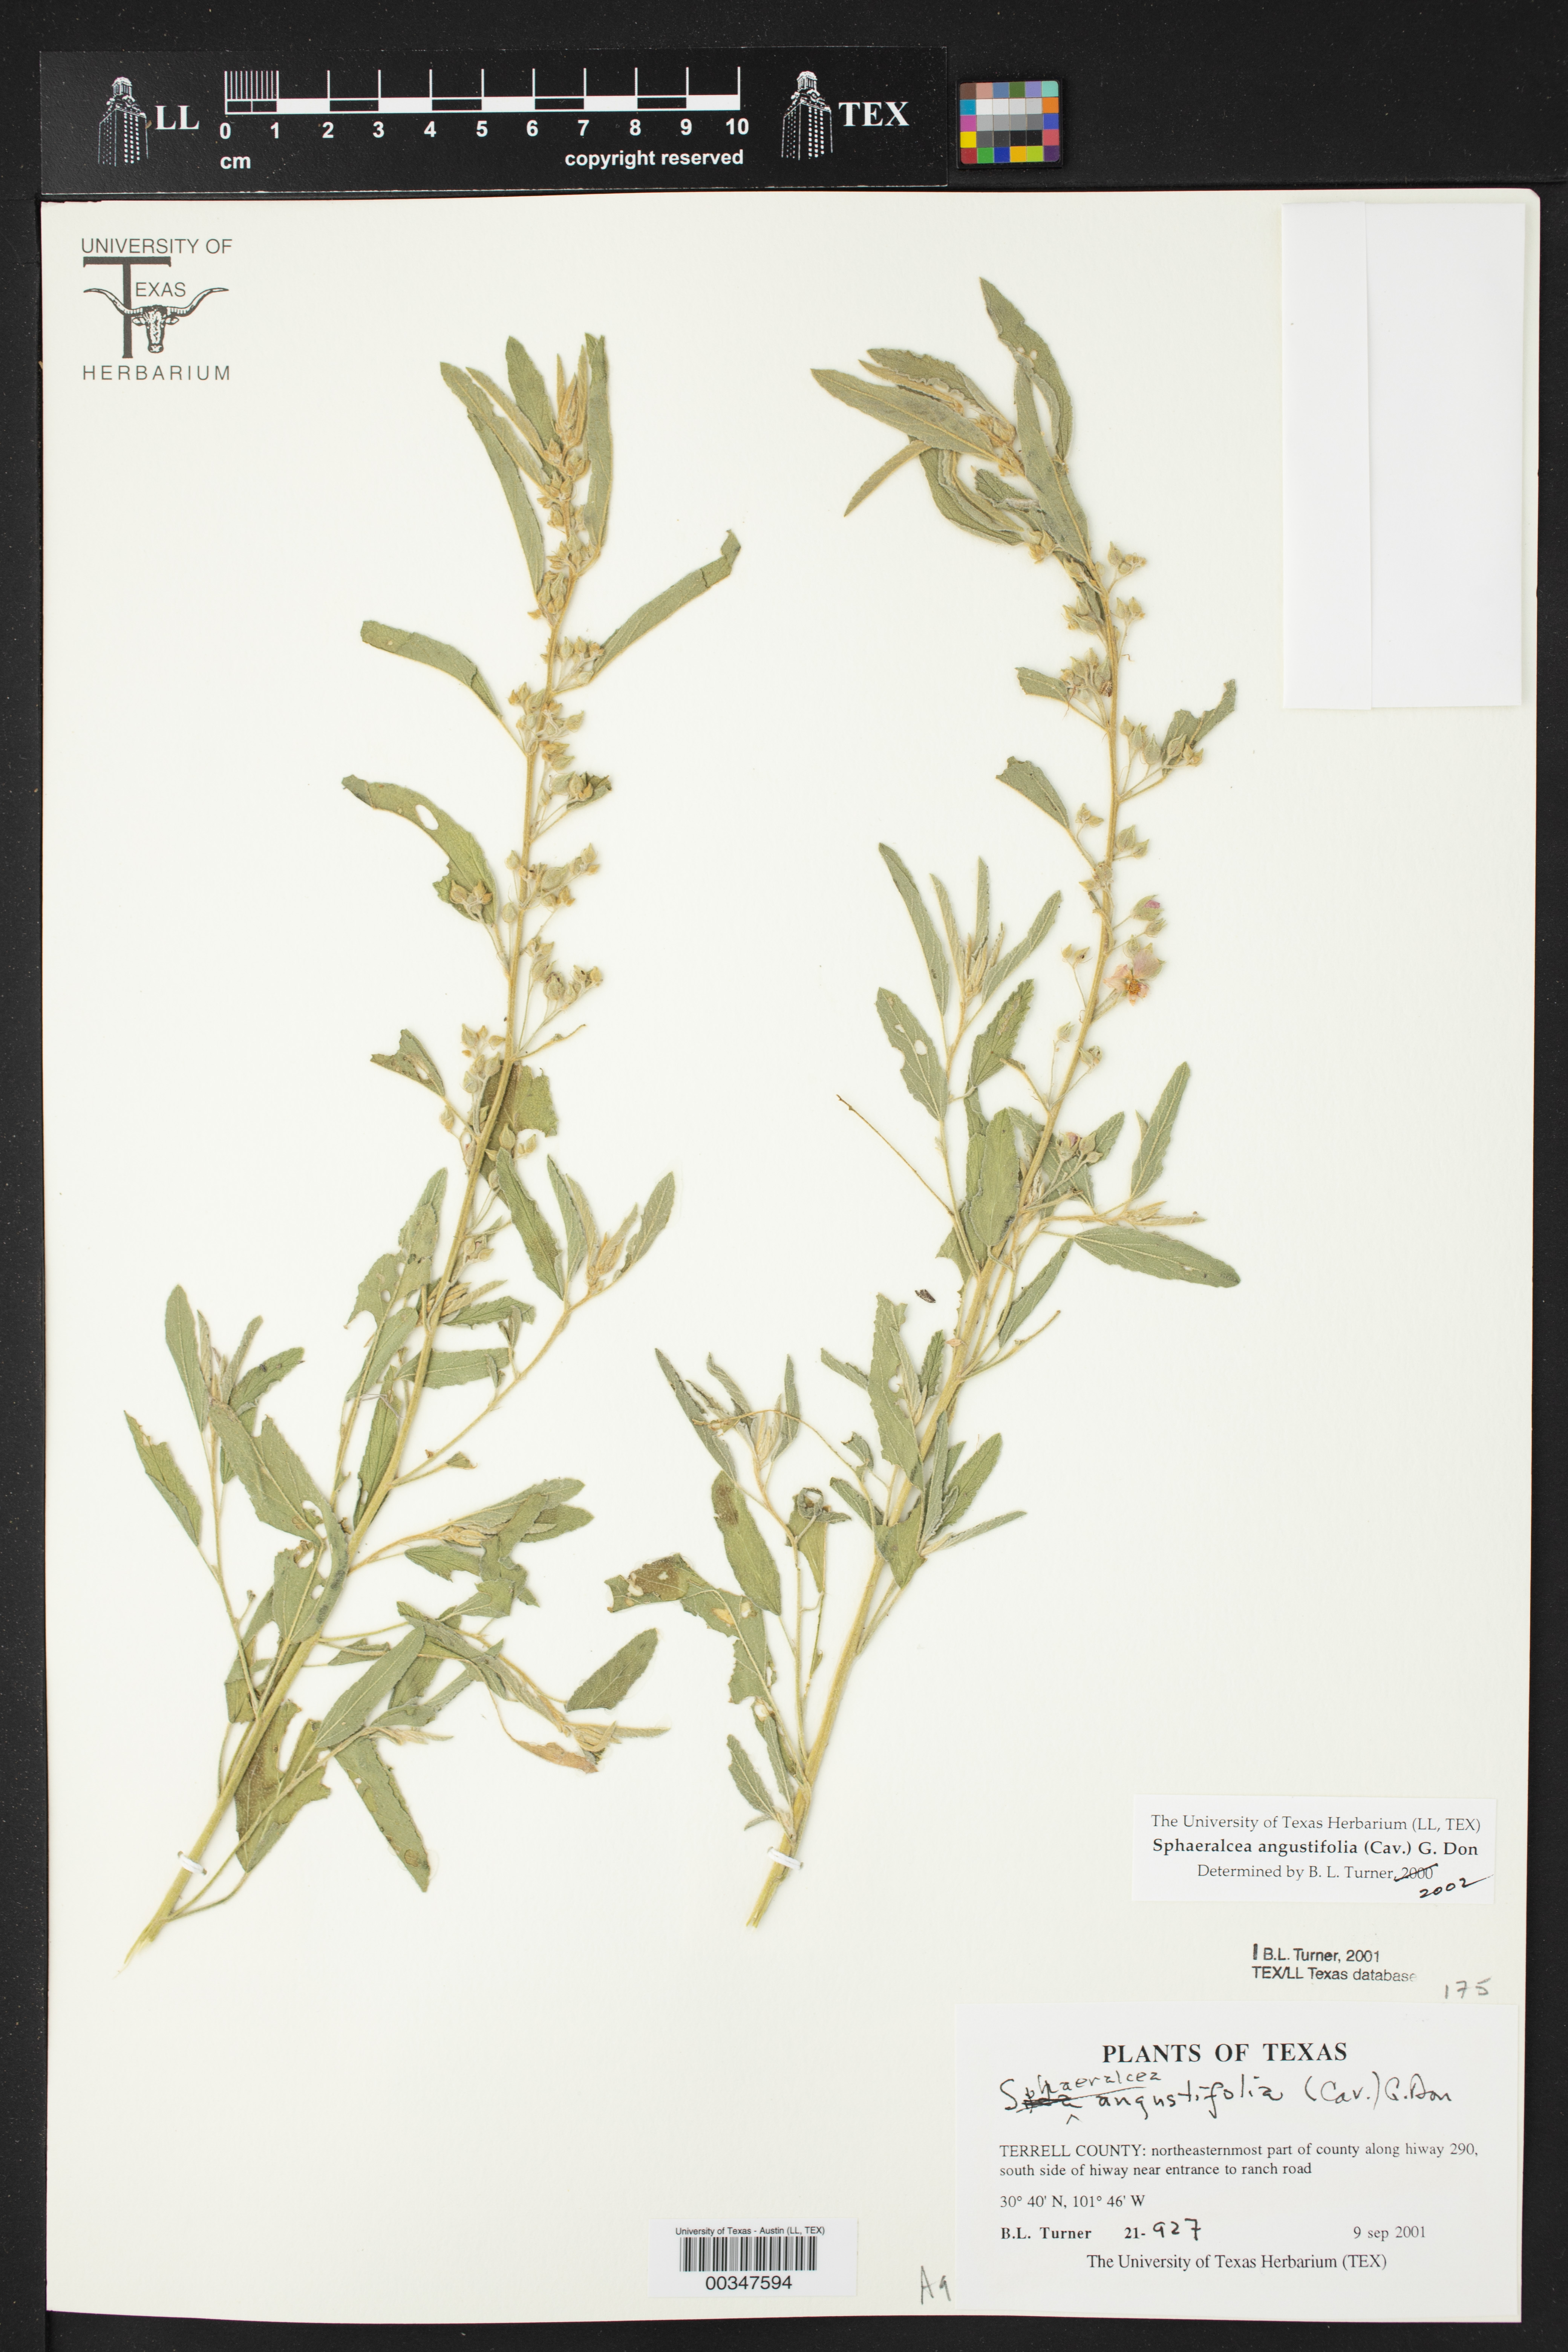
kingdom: Plantae
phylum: Tracheophyta
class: Magnoliopsida
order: Malvales
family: Malvaceae
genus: Sphaeralcea
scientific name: Sphaeralcea angustifolia
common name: Copper globe-mallow
